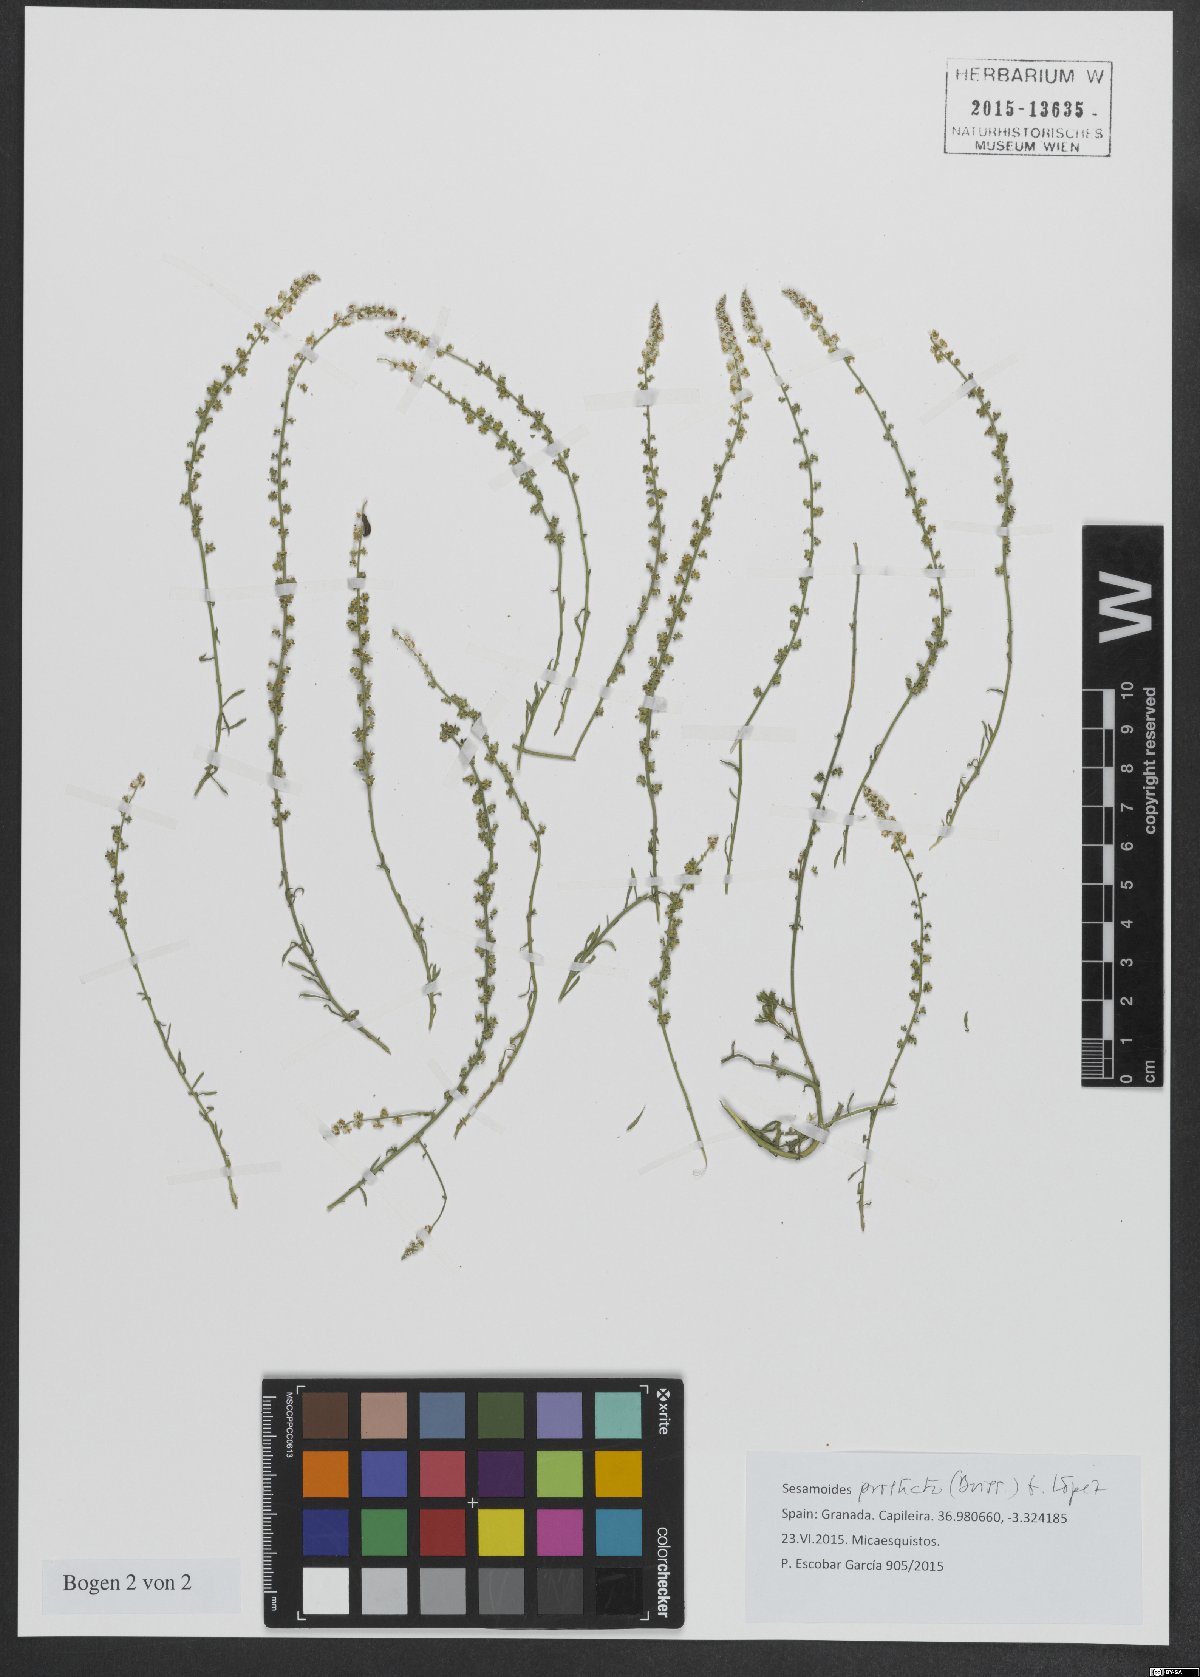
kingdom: Plantae
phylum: Tracheophyta
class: Magnoliopsida
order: Brassicales
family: Resedaceae
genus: Sesamoides
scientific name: Sesamoides prostrata
